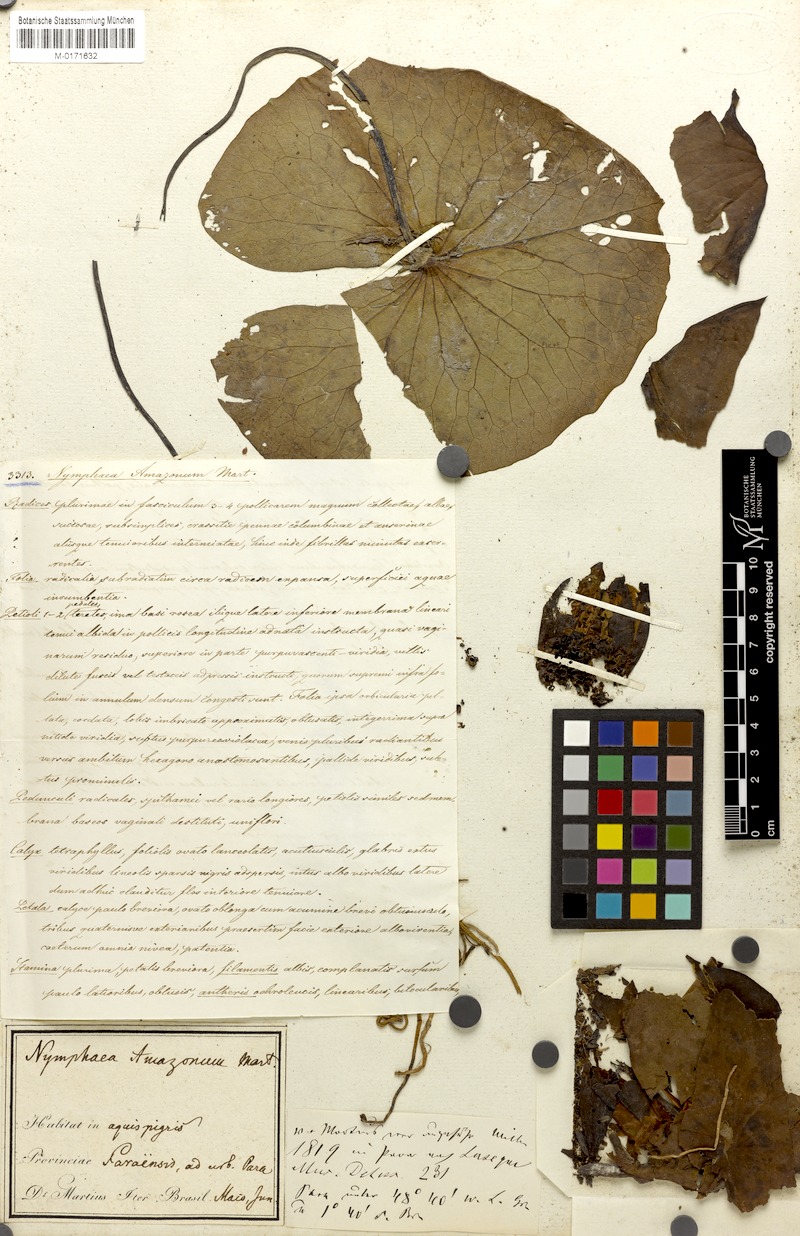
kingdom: Plantae
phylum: Tracheophyta
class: Magnoliopsida
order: Nymphaeales
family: Nymphaeaceae
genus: Nymphaea
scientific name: Nymphaea amazonum
